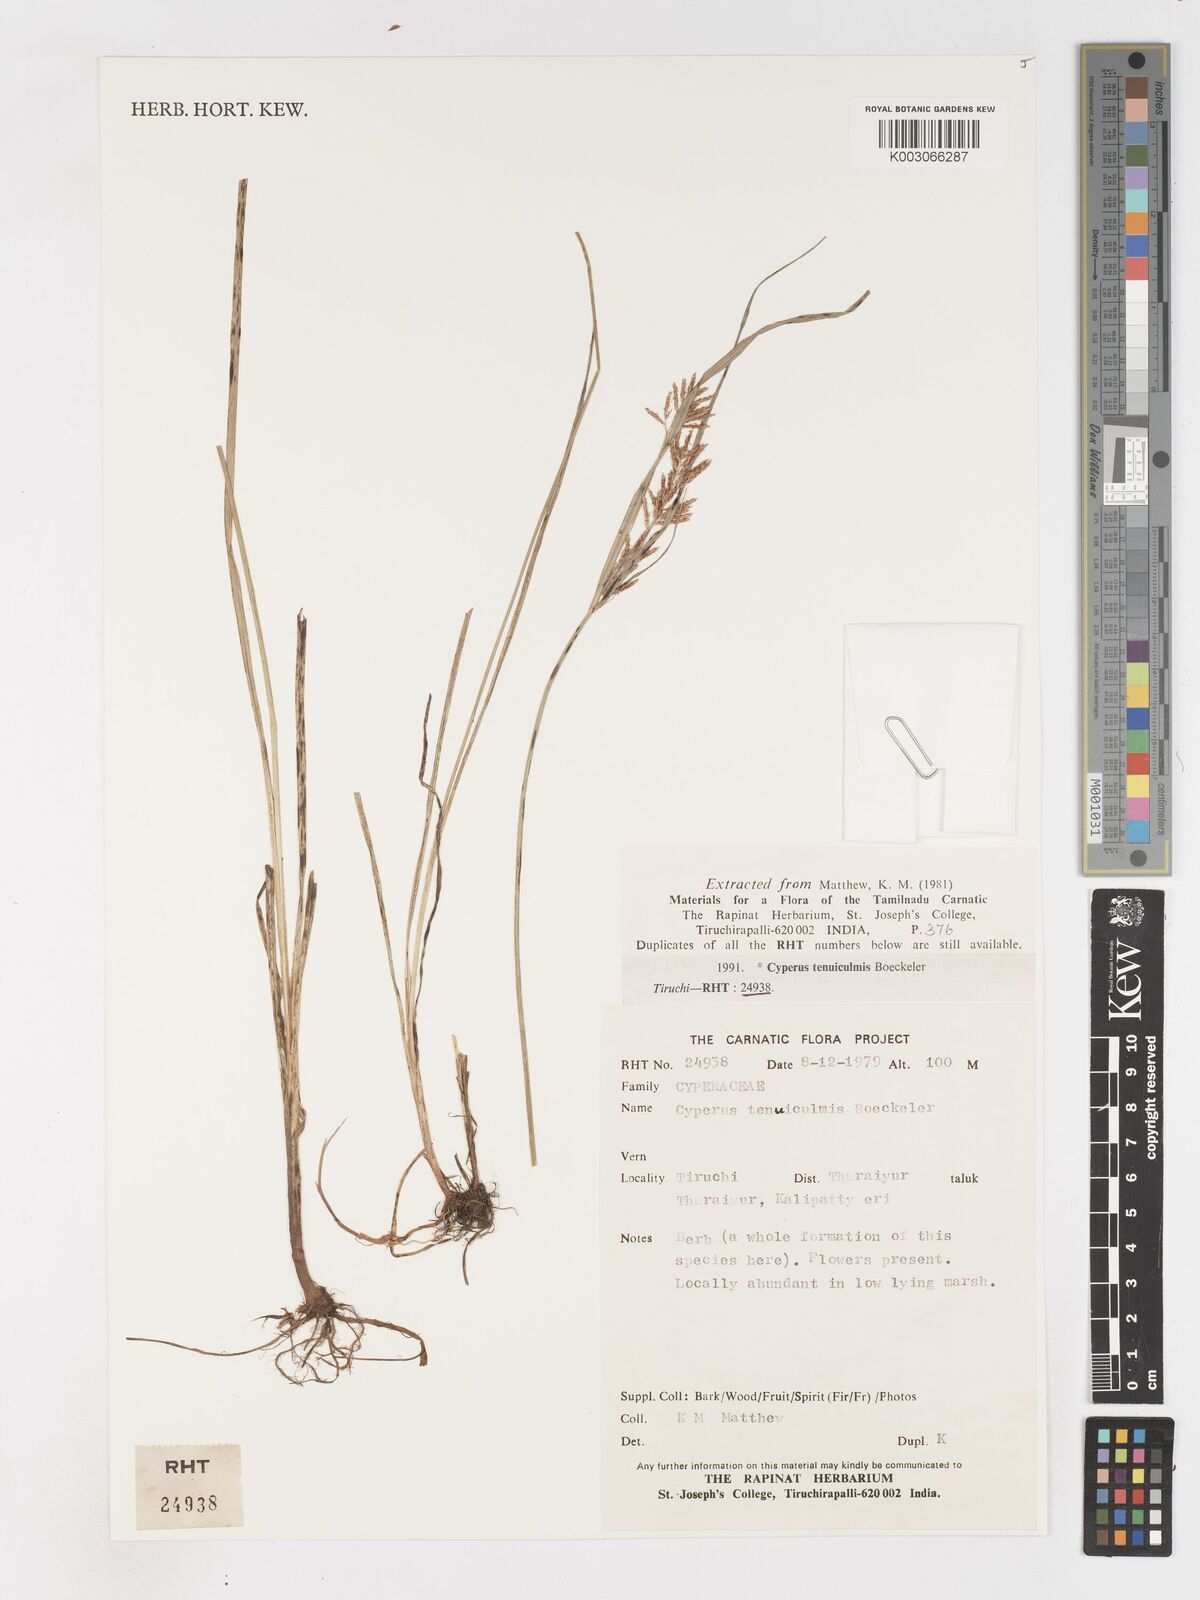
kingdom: Plantae
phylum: Tracheophyta
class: Liliopsida
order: Poales
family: Cyperaceae
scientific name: Cyperaceae
